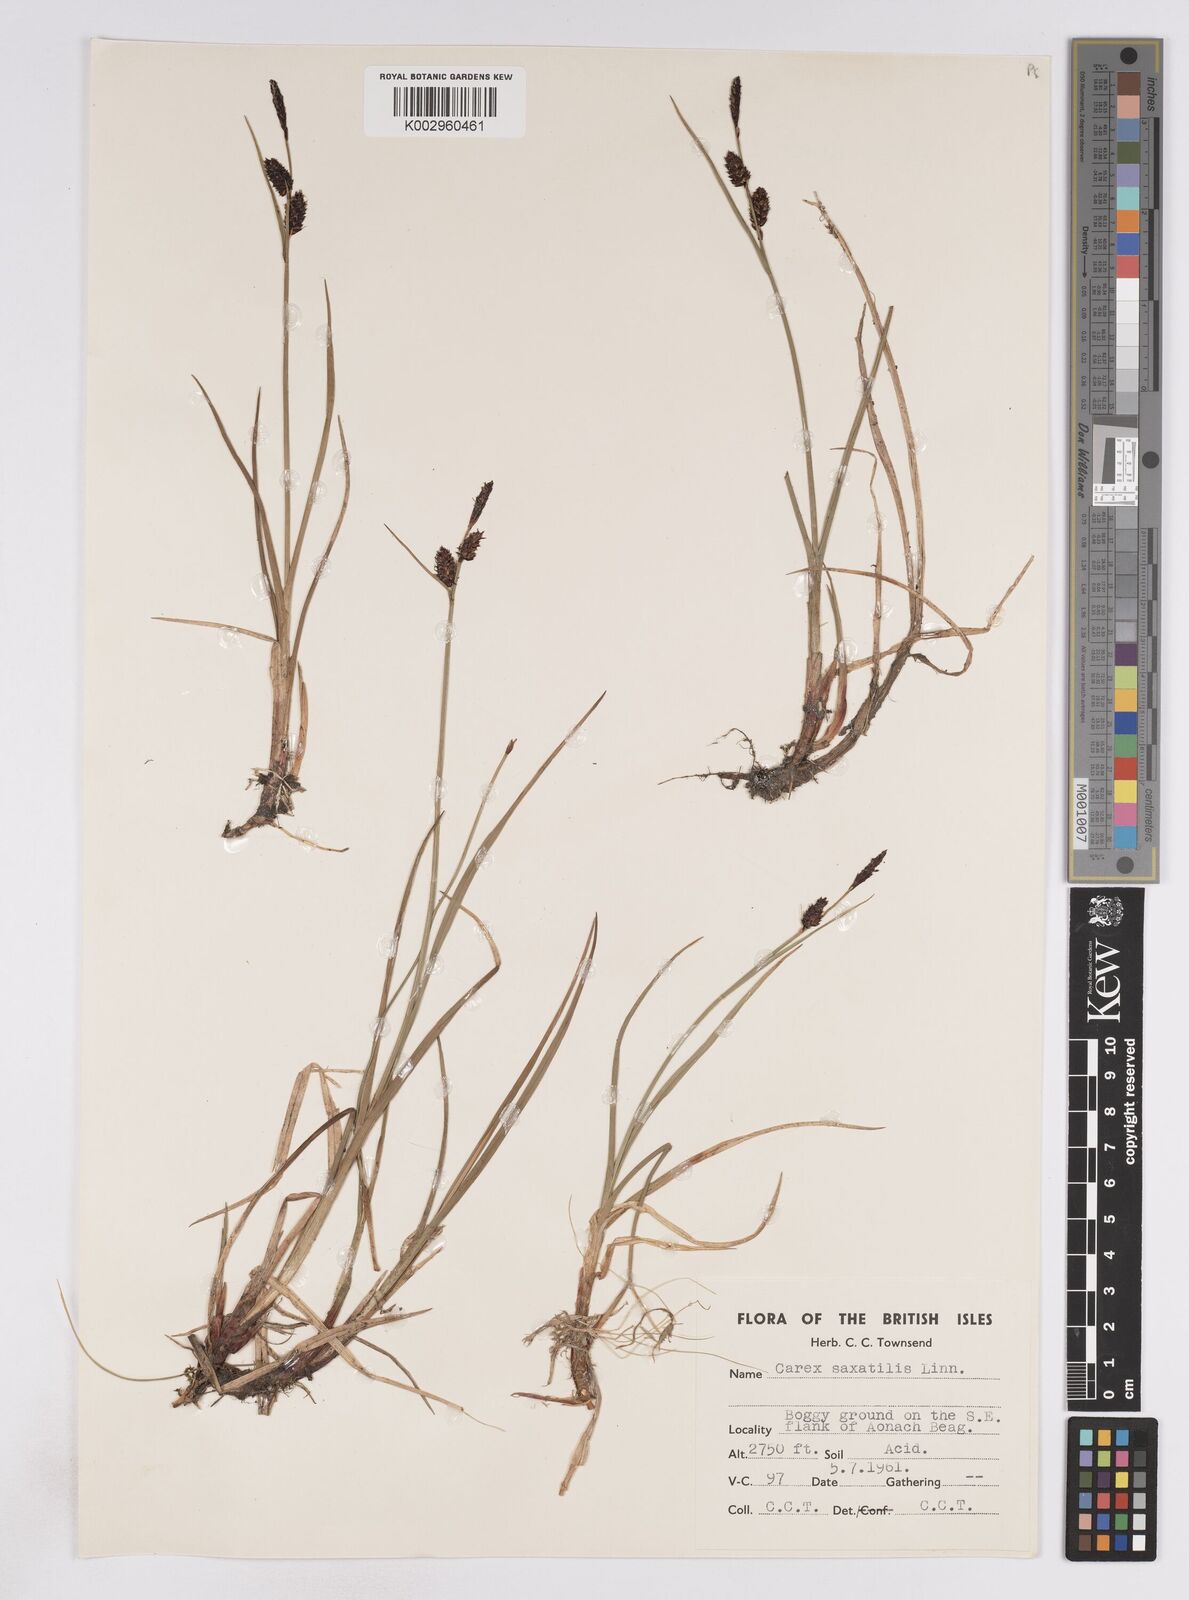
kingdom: Plantae
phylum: Tracheophyta
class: Liliopsida
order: Poales
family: Cyperaceae
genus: Carex
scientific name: Carex saxatilis
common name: Russet sedge
